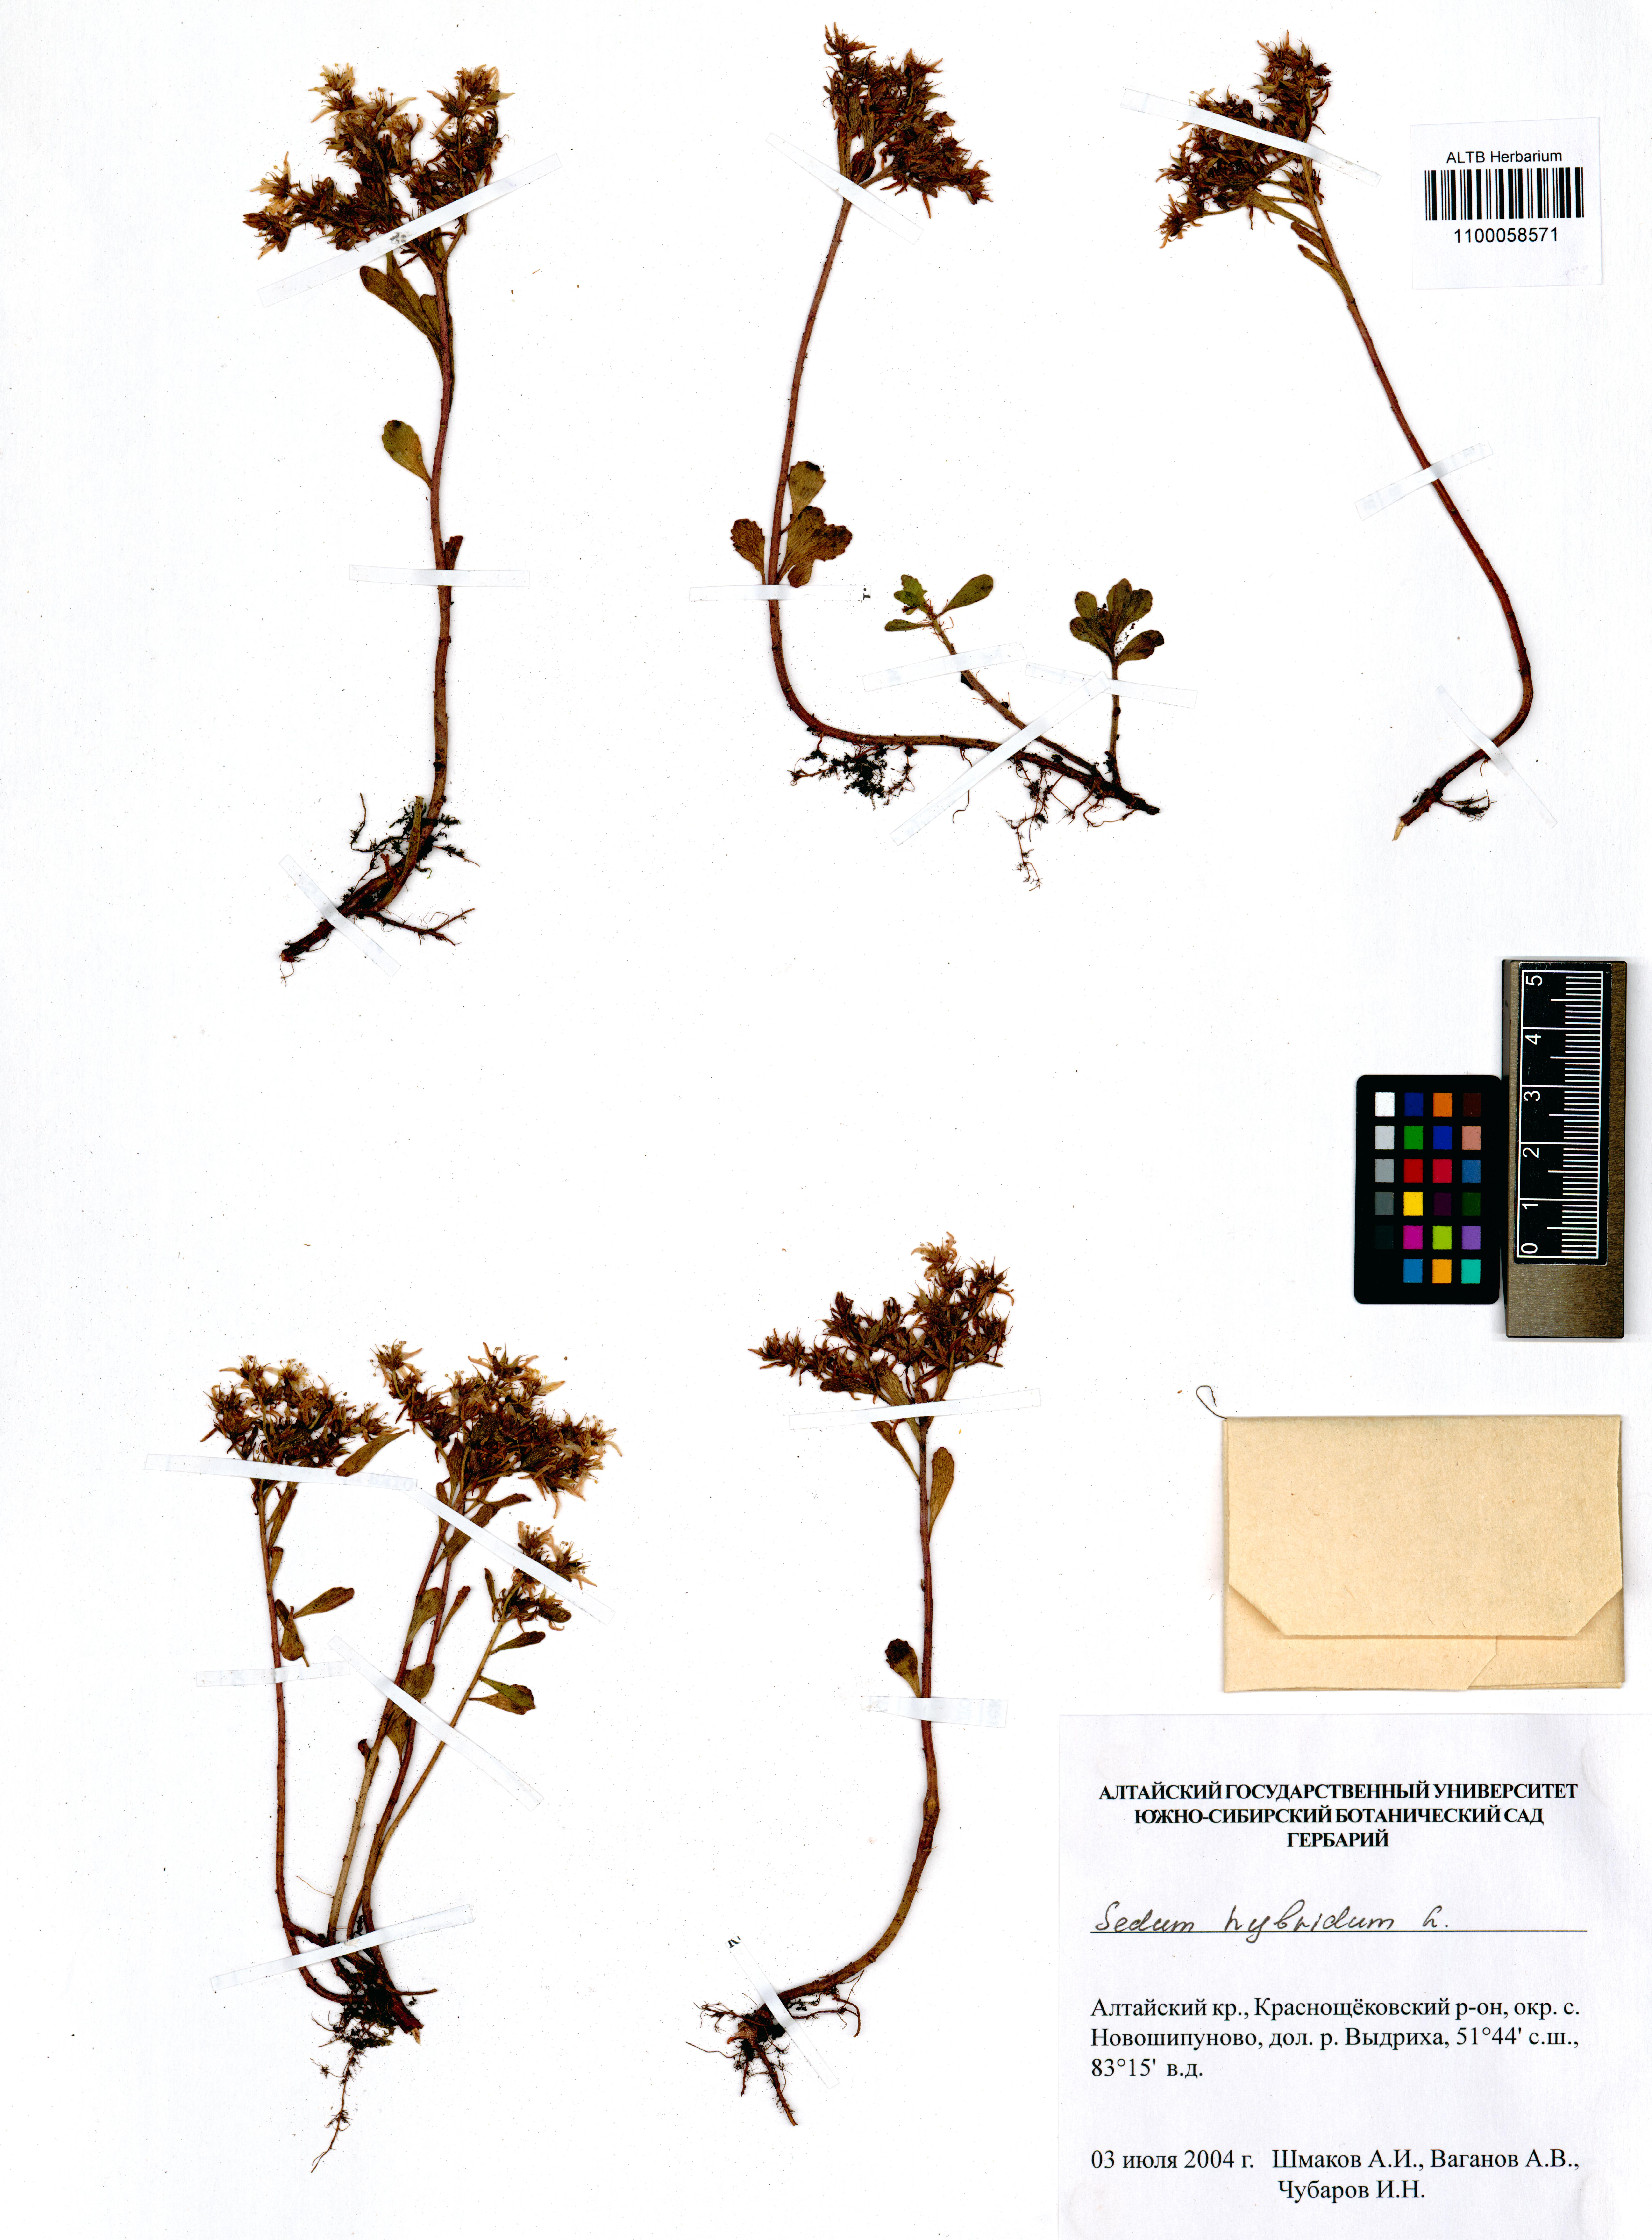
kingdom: Plantae
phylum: Tracheophyta
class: Magnoliopsida
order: Saxifragales
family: Crassulaceae
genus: Phedimus
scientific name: Phedimus hybridus
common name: Hybrid stonecrop
